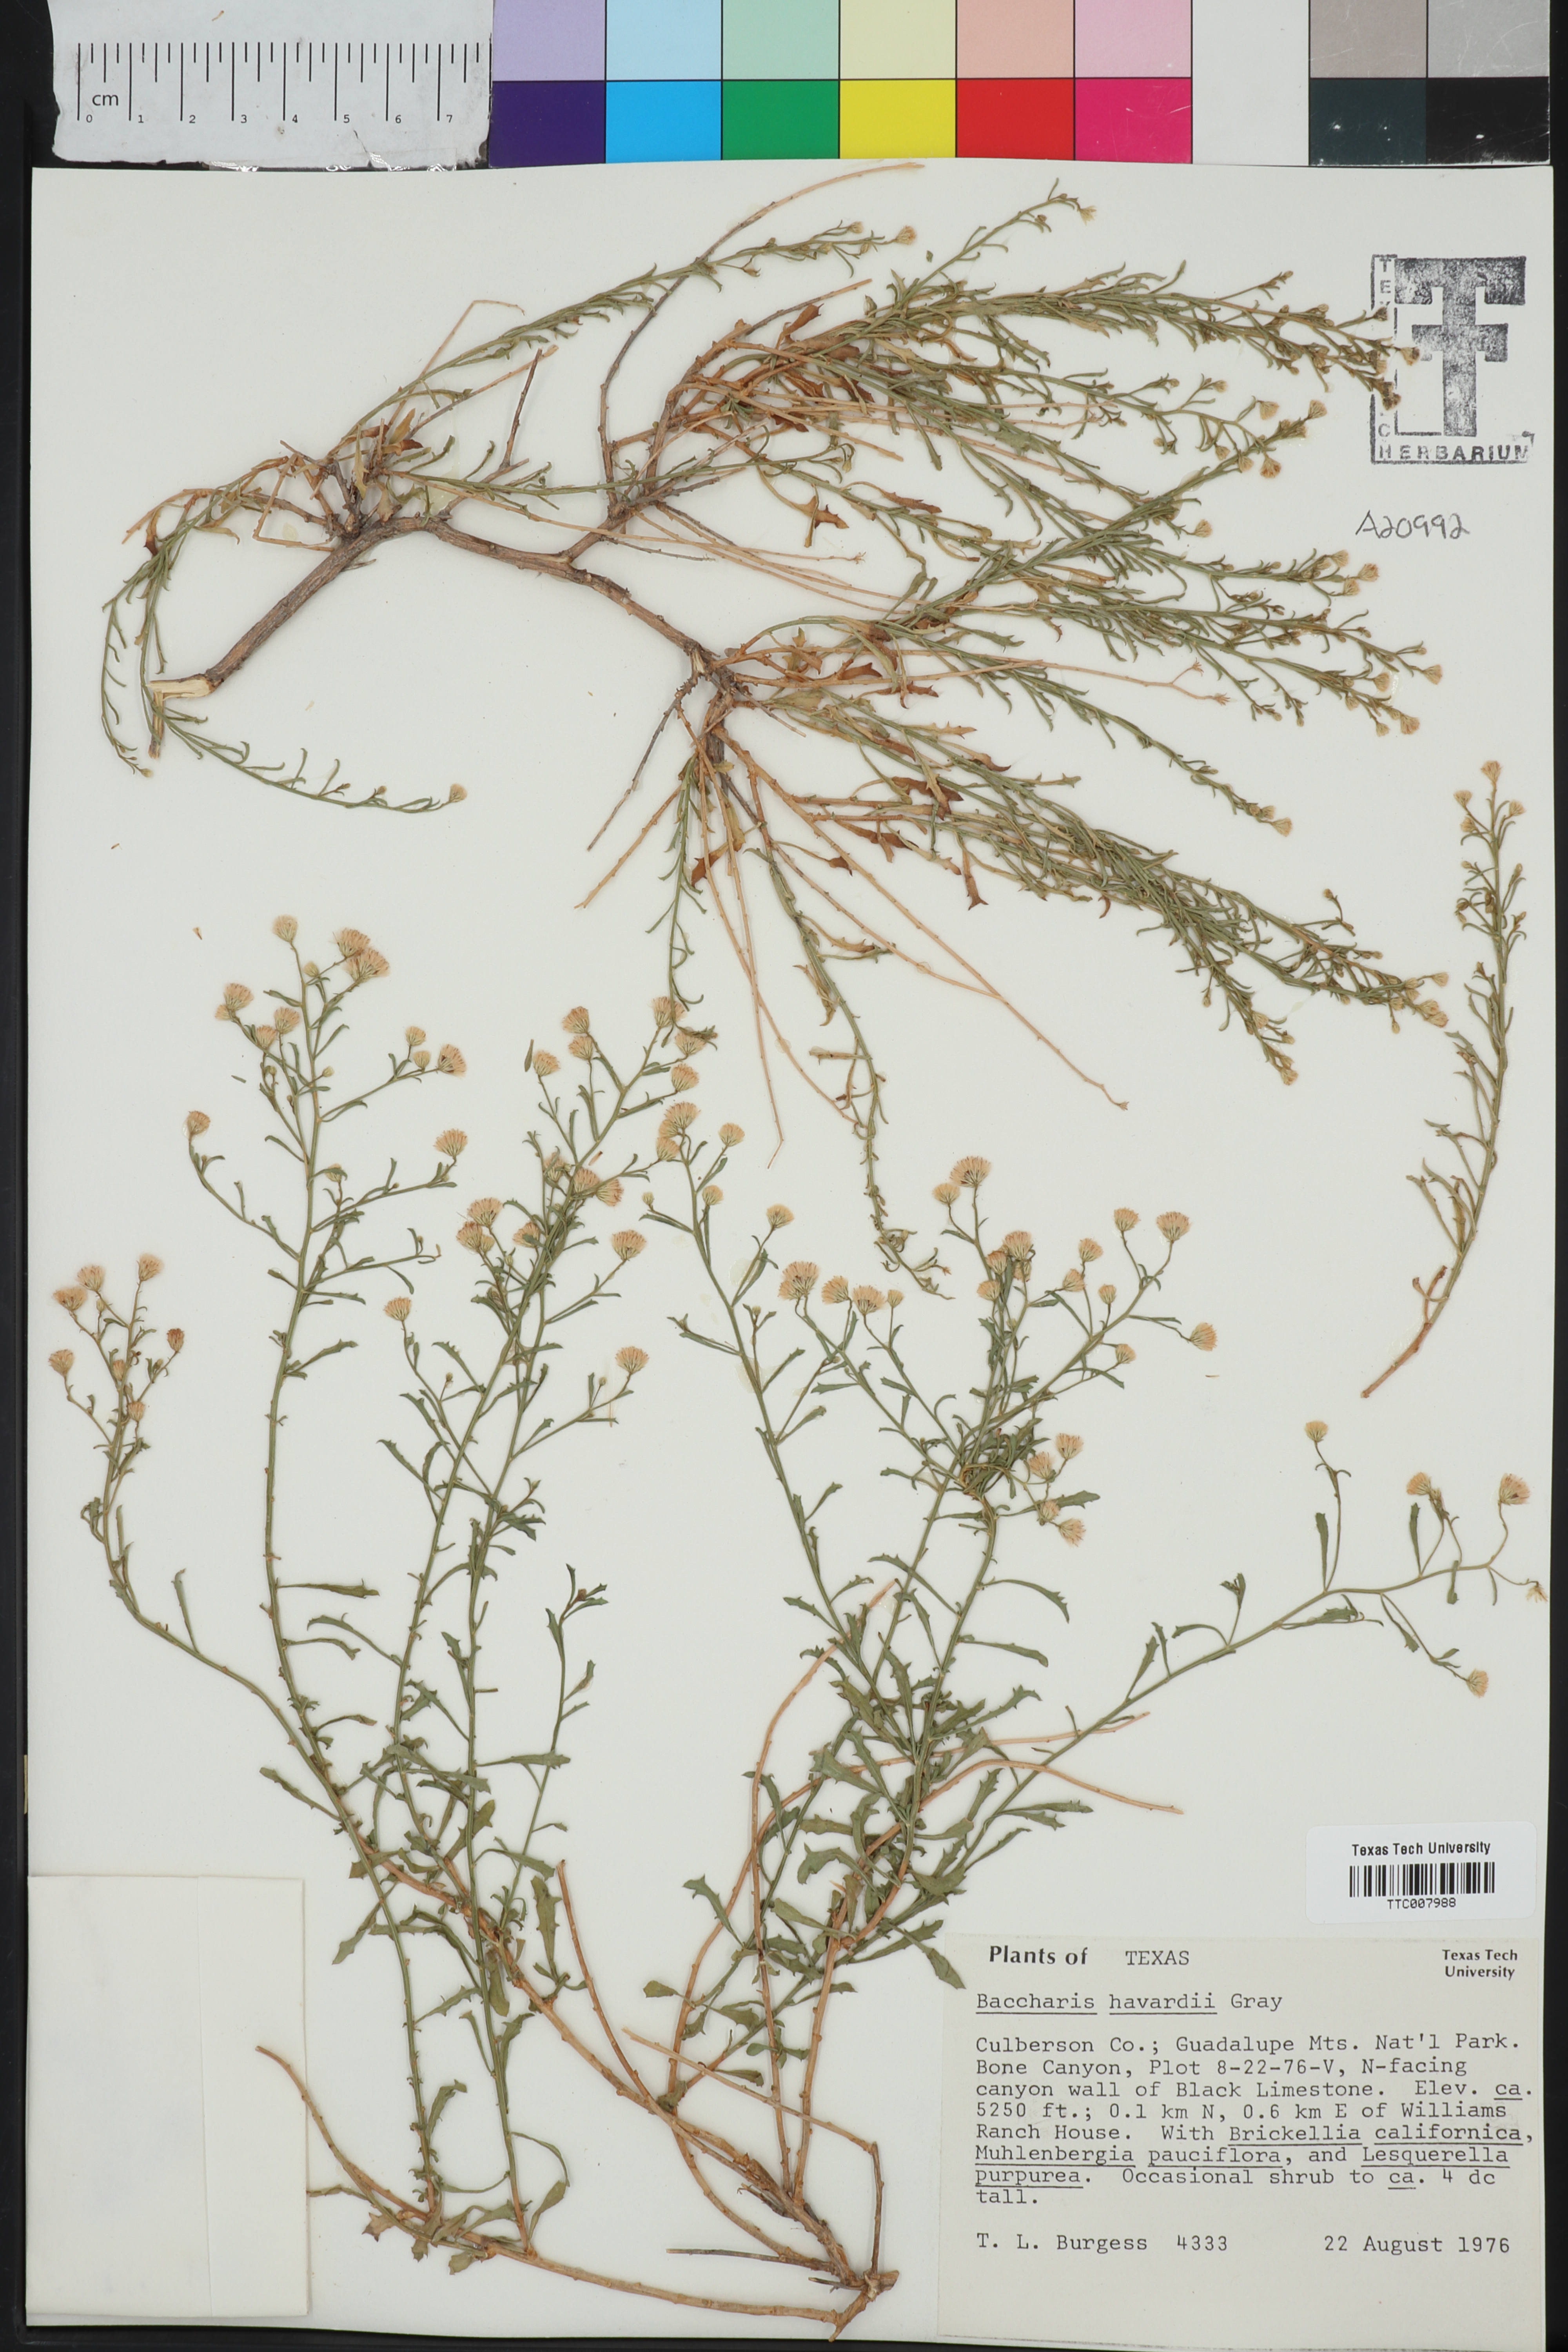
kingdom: Plantae
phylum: Tracheophyta
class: Magnoliopsida
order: Asterales
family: Asteraceae
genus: Baccharis
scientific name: Baccharis havardii
